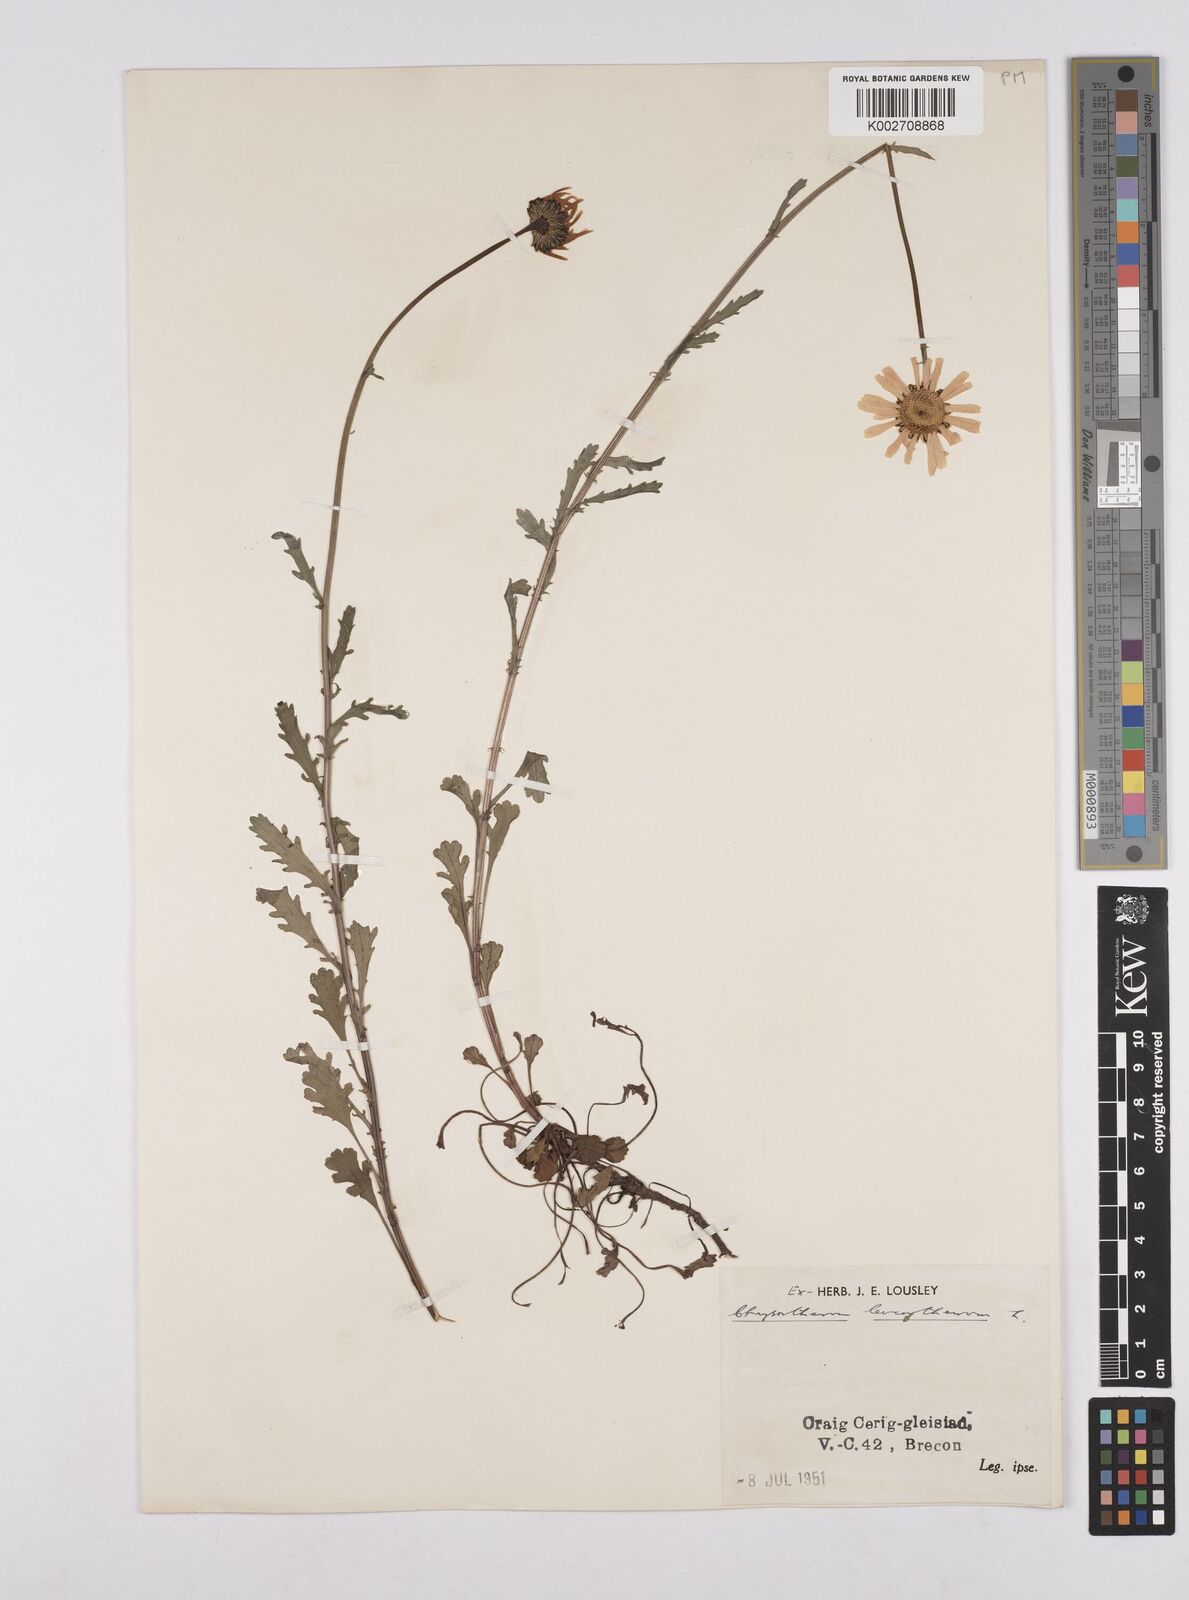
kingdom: Plantae
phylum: Tracheophyta
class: Magnoliopsida
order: Asterales
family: Asteraceae
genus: Leucanthemum
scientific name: Leucanthemum
